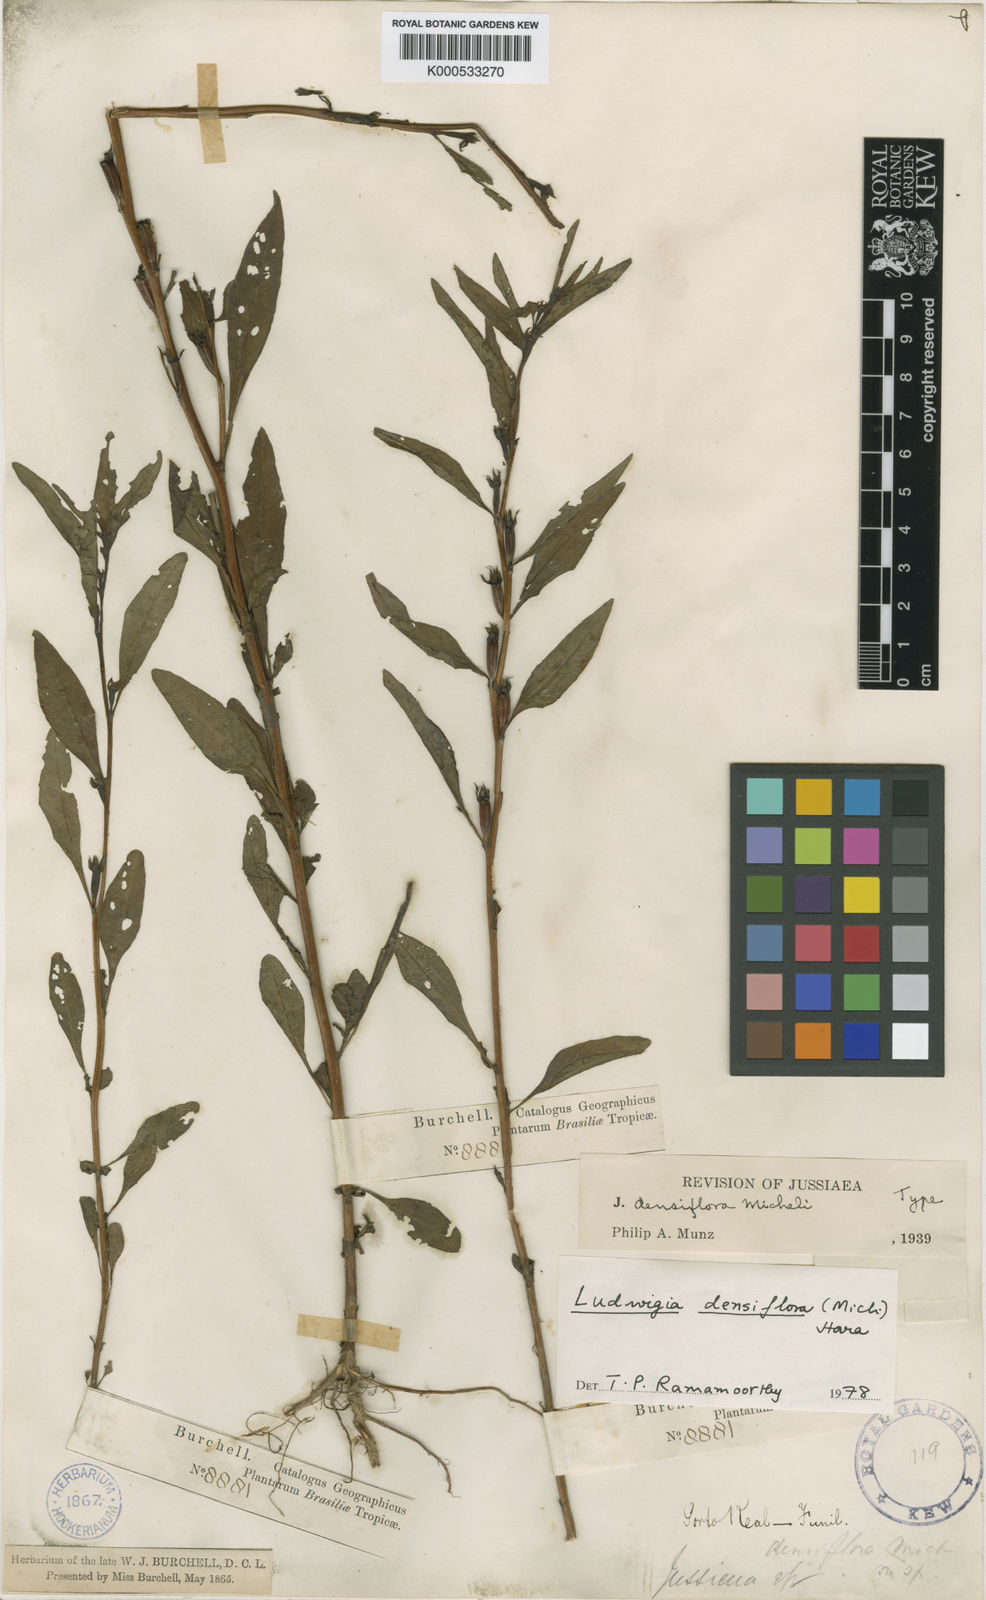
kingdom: Plantae
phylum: Tracheophyta
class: Magnoliopsida
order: Myrtales
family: Onagraceae
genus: Ludwigia
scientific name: Ludwigia densiflora
